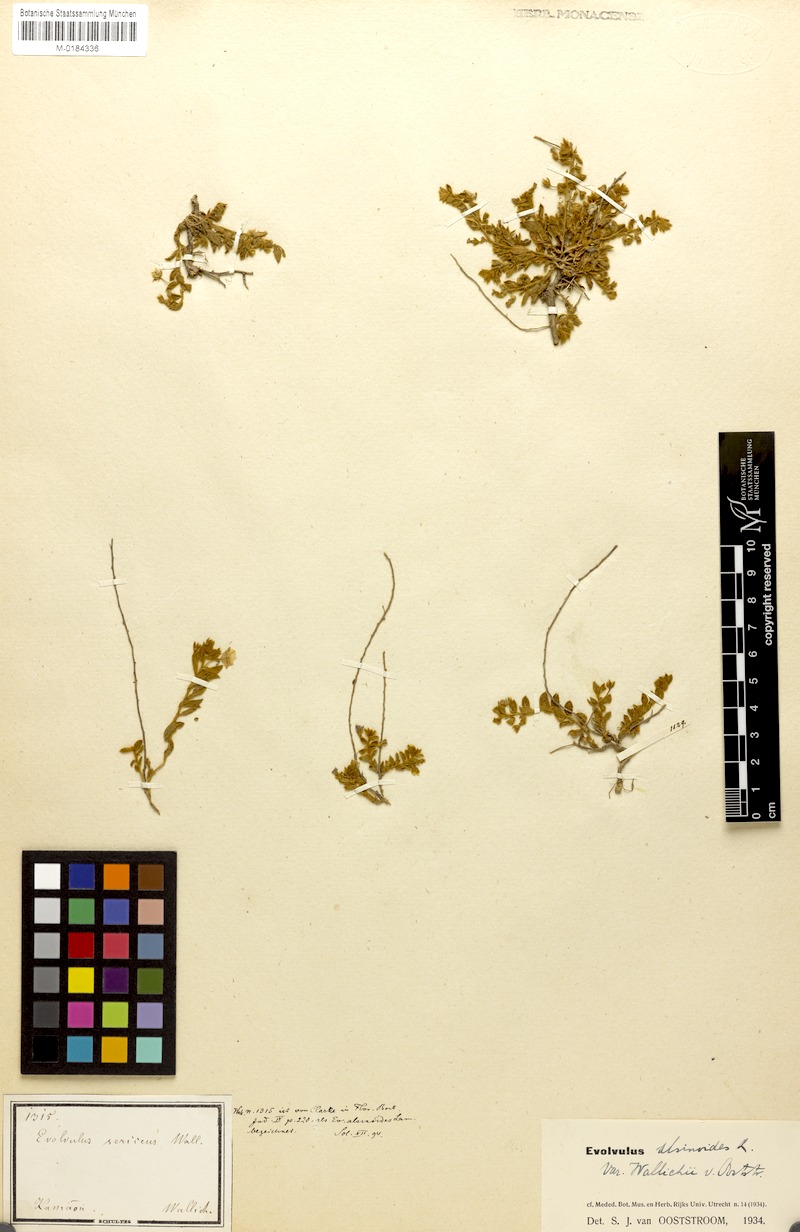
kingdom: Plantae
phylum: Tracheophyta
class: Magnoliopsida
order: Solanales
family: Convolvulaceae
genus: Evolvulus
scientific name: Evolvulus alsinoides
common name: Slender dwarf morning-glory
